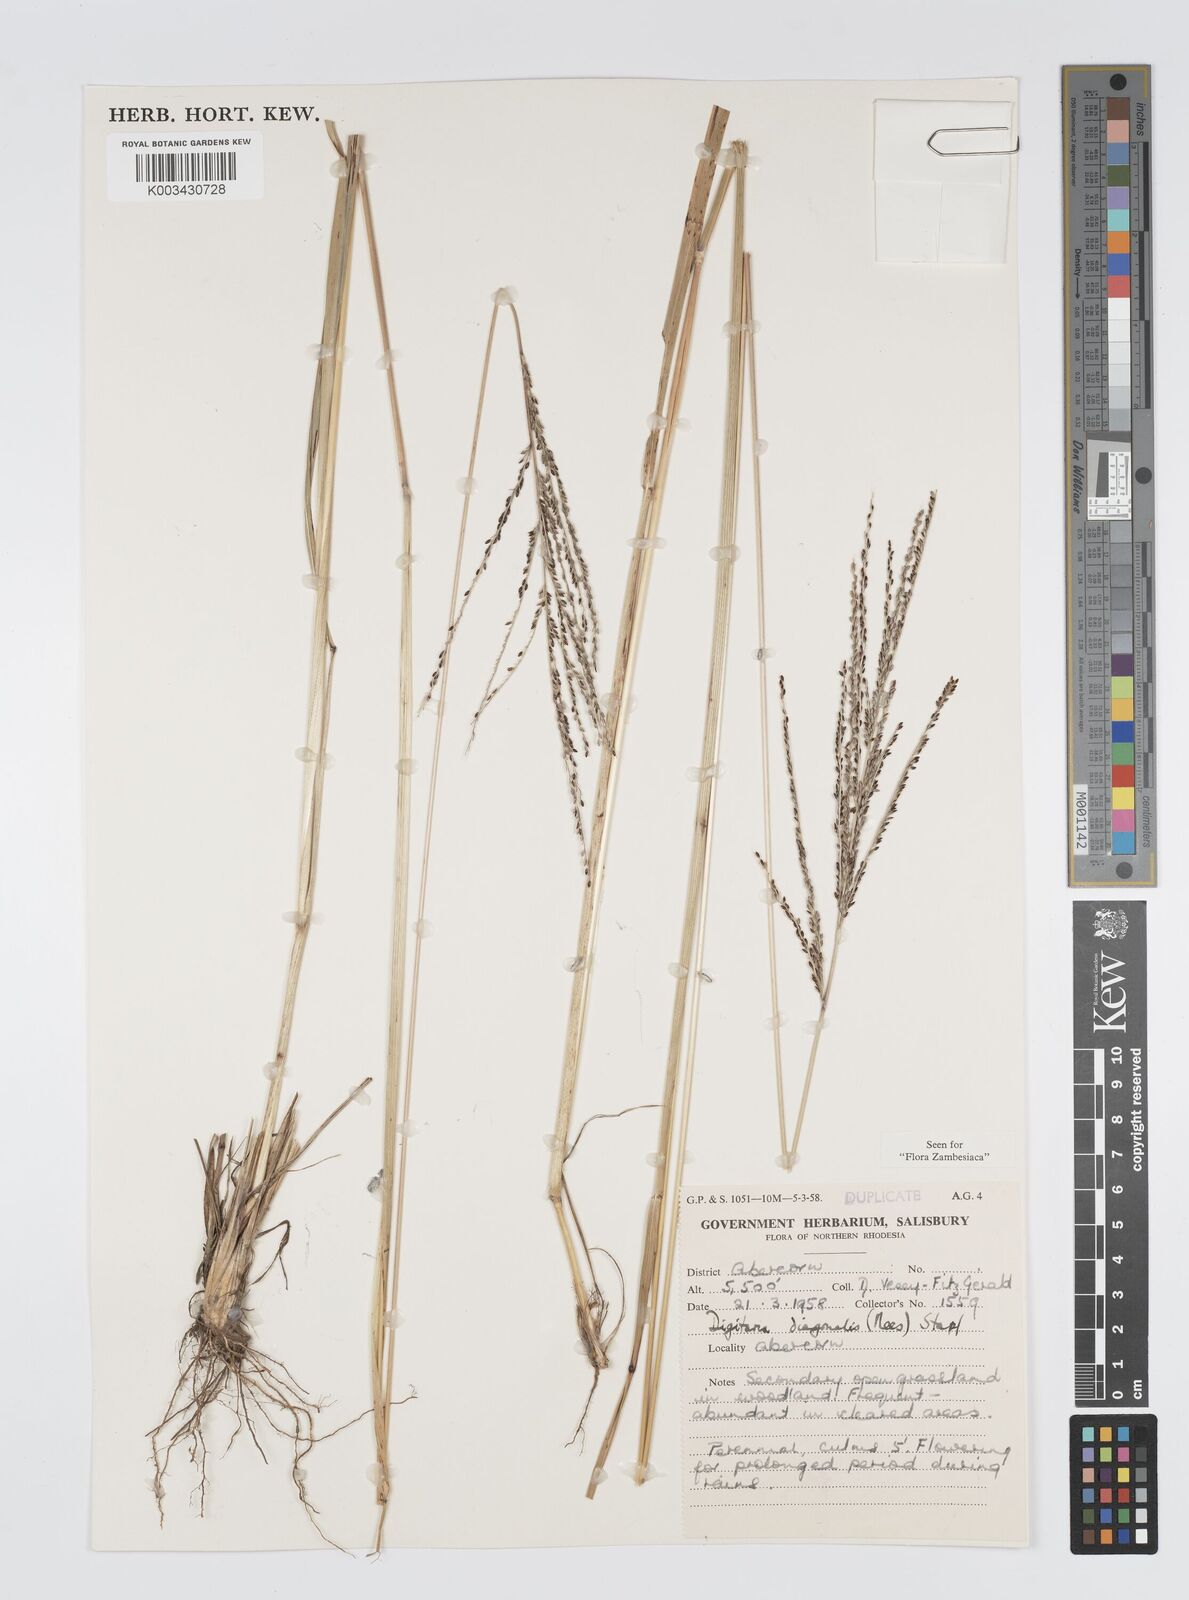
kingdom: Plantae
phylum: Tracheophyta
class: Liliopsida
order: Poales
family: Poaceae
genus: Digitaria
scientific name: Digitaria diagonalis
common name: Brown-seed finger grass
